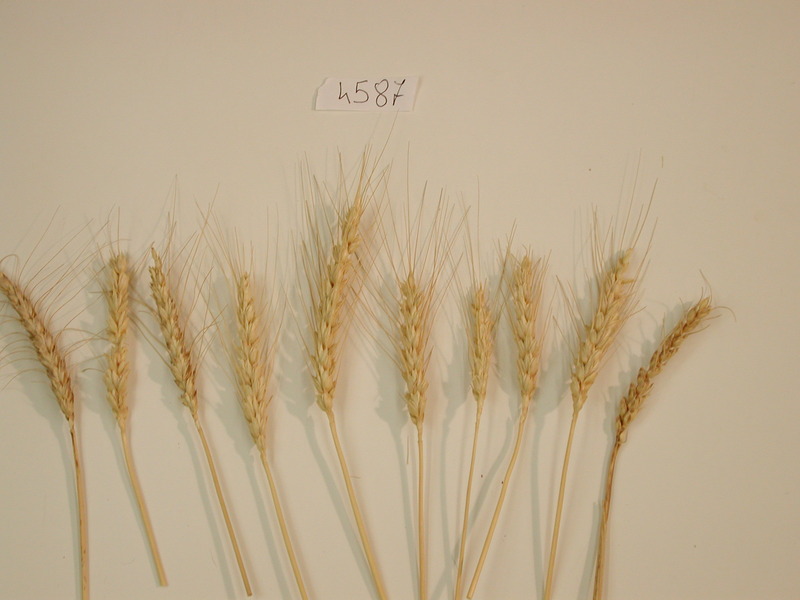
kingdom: Plantae
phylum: Tracheophyta
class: Liliopsida
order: Poales
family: Poaceae
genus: Triticum
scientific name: Triticum
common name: Wheat
